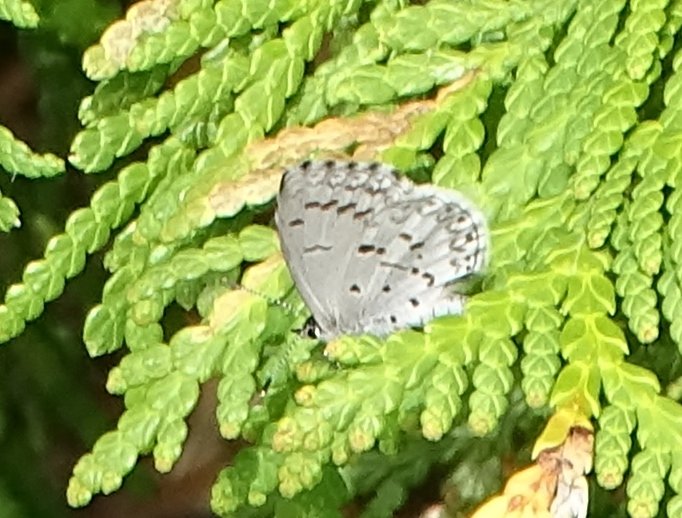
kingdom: Animalia
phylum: Arthropoda
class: Insecta
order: Lepidoptera
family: Lycaenidae
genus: Celastrina
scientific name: Celastrina lucia
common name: Northern Spring Azure
